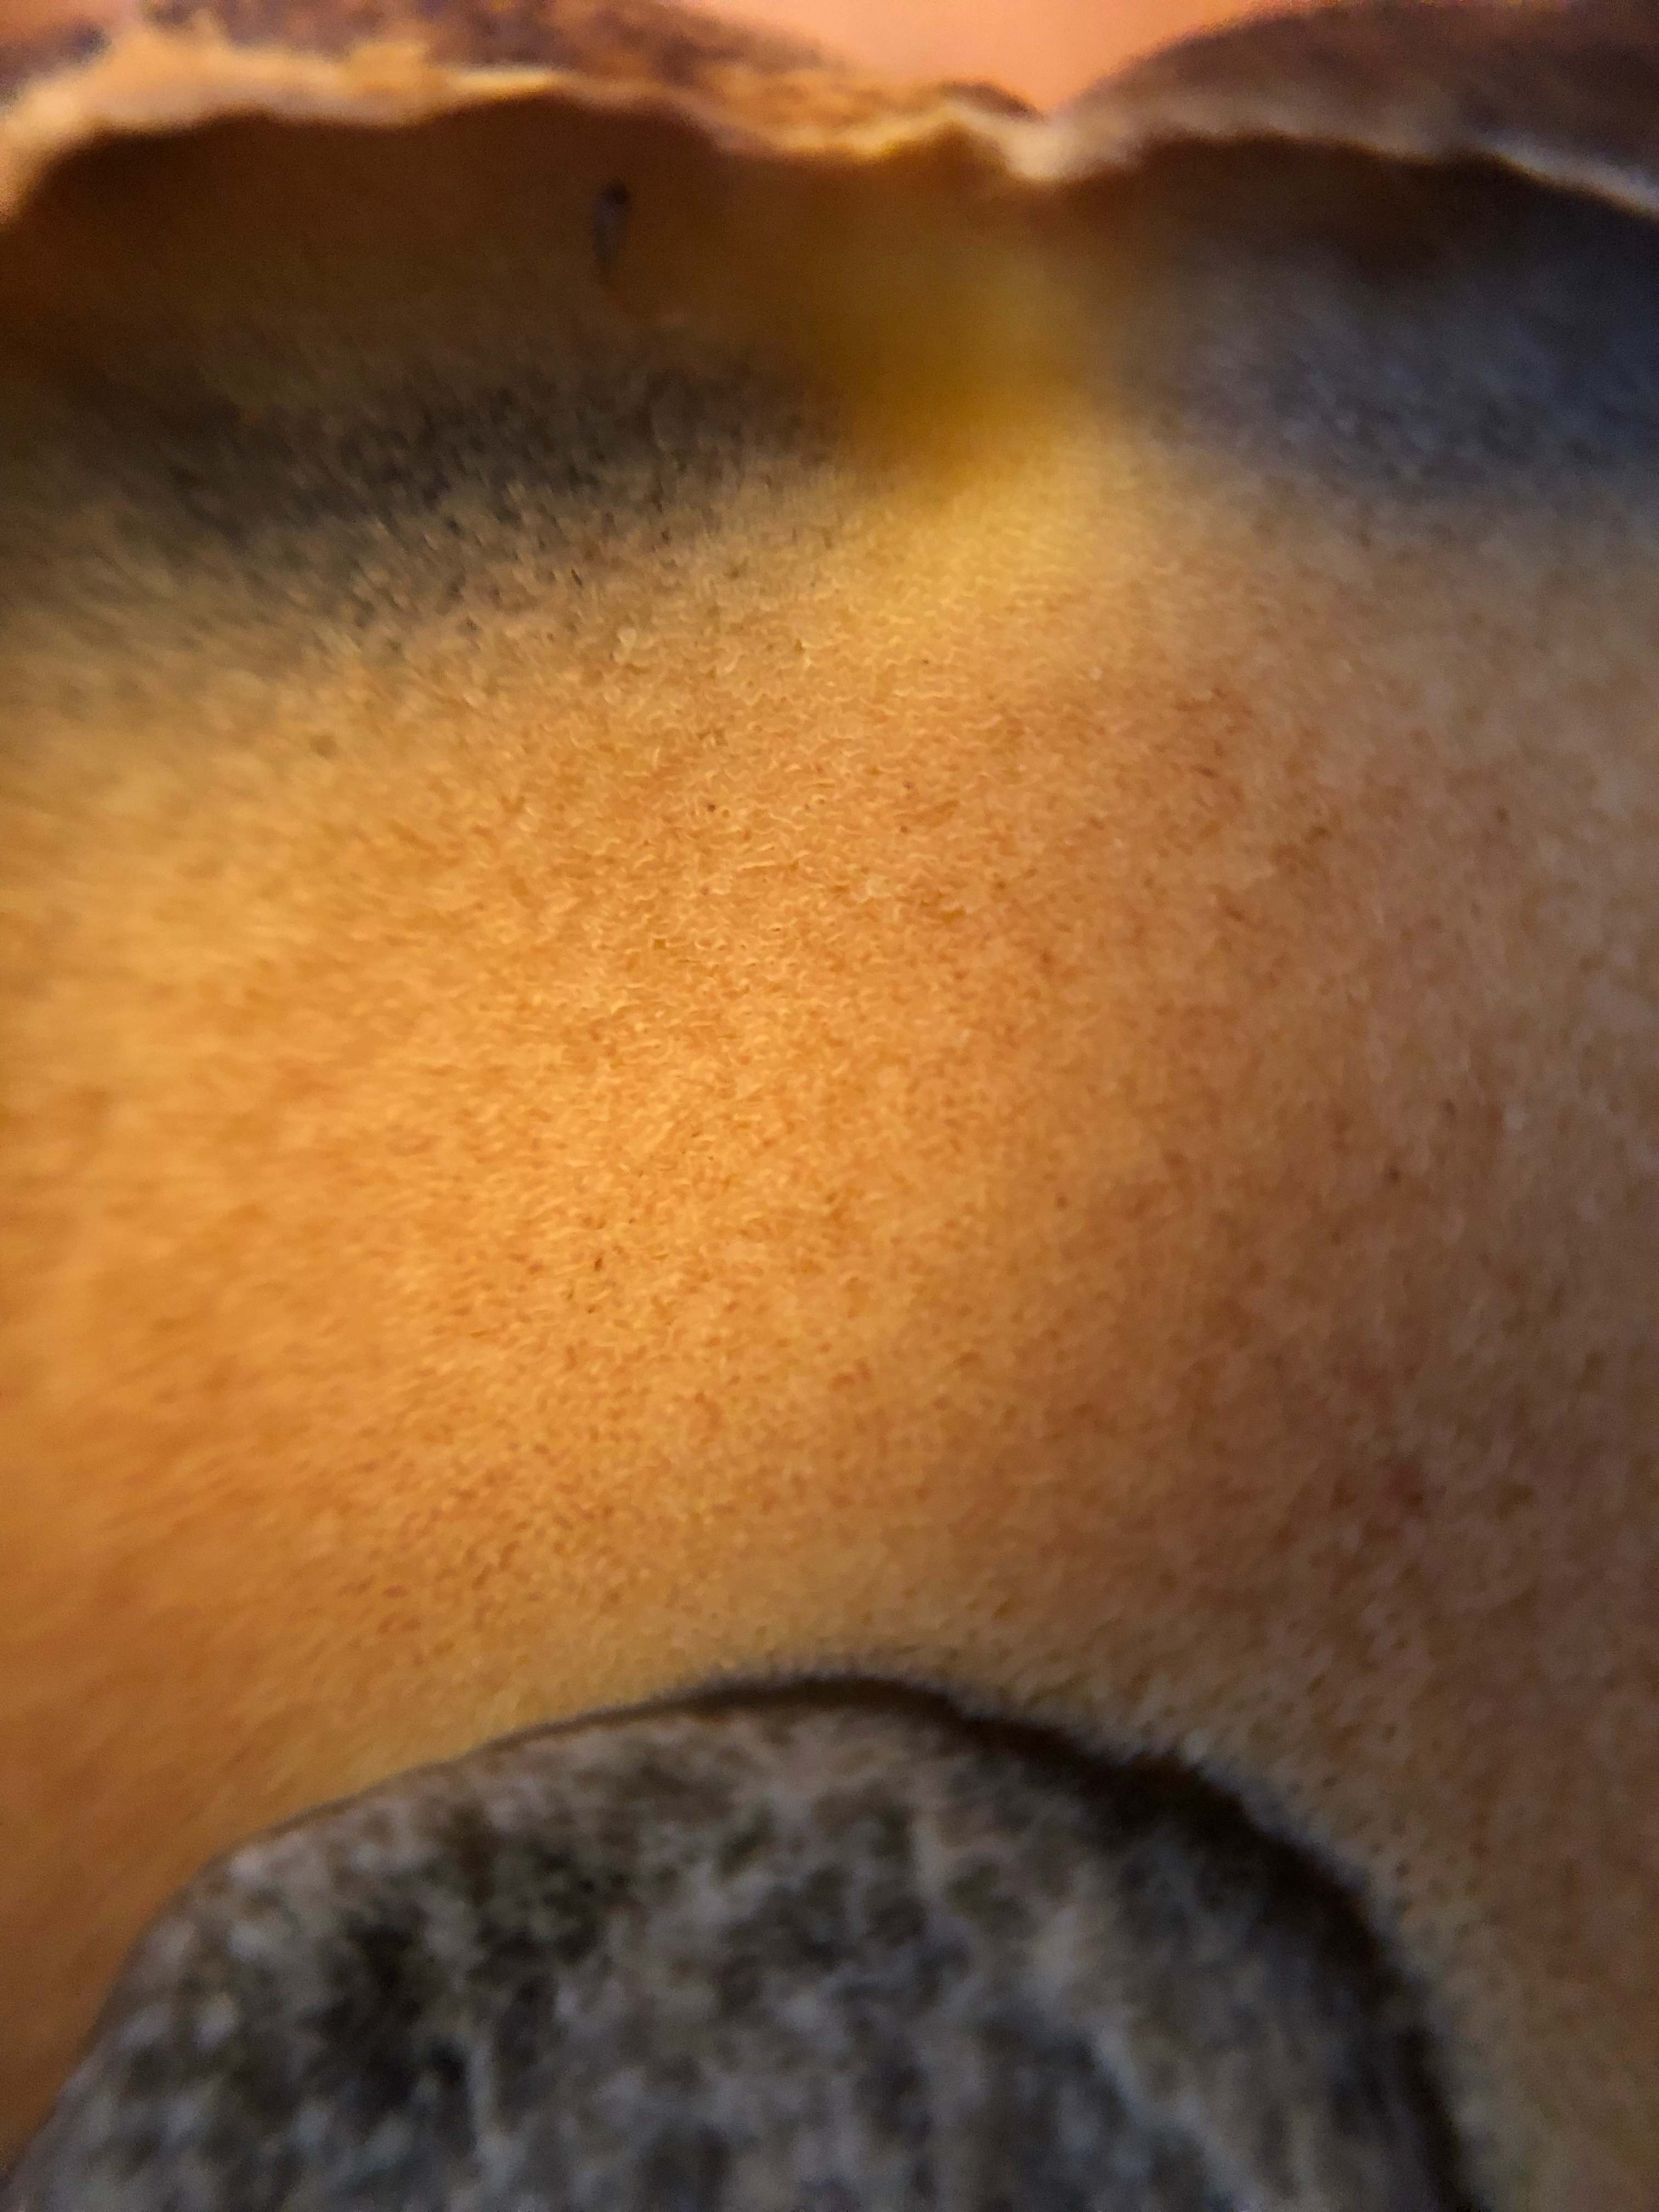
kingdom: Fungi
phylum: Basidiomycota
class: Agaricomycetes
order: Boletales
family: Boletaceae
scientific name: Boletaceae
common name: rørhatfamilien
